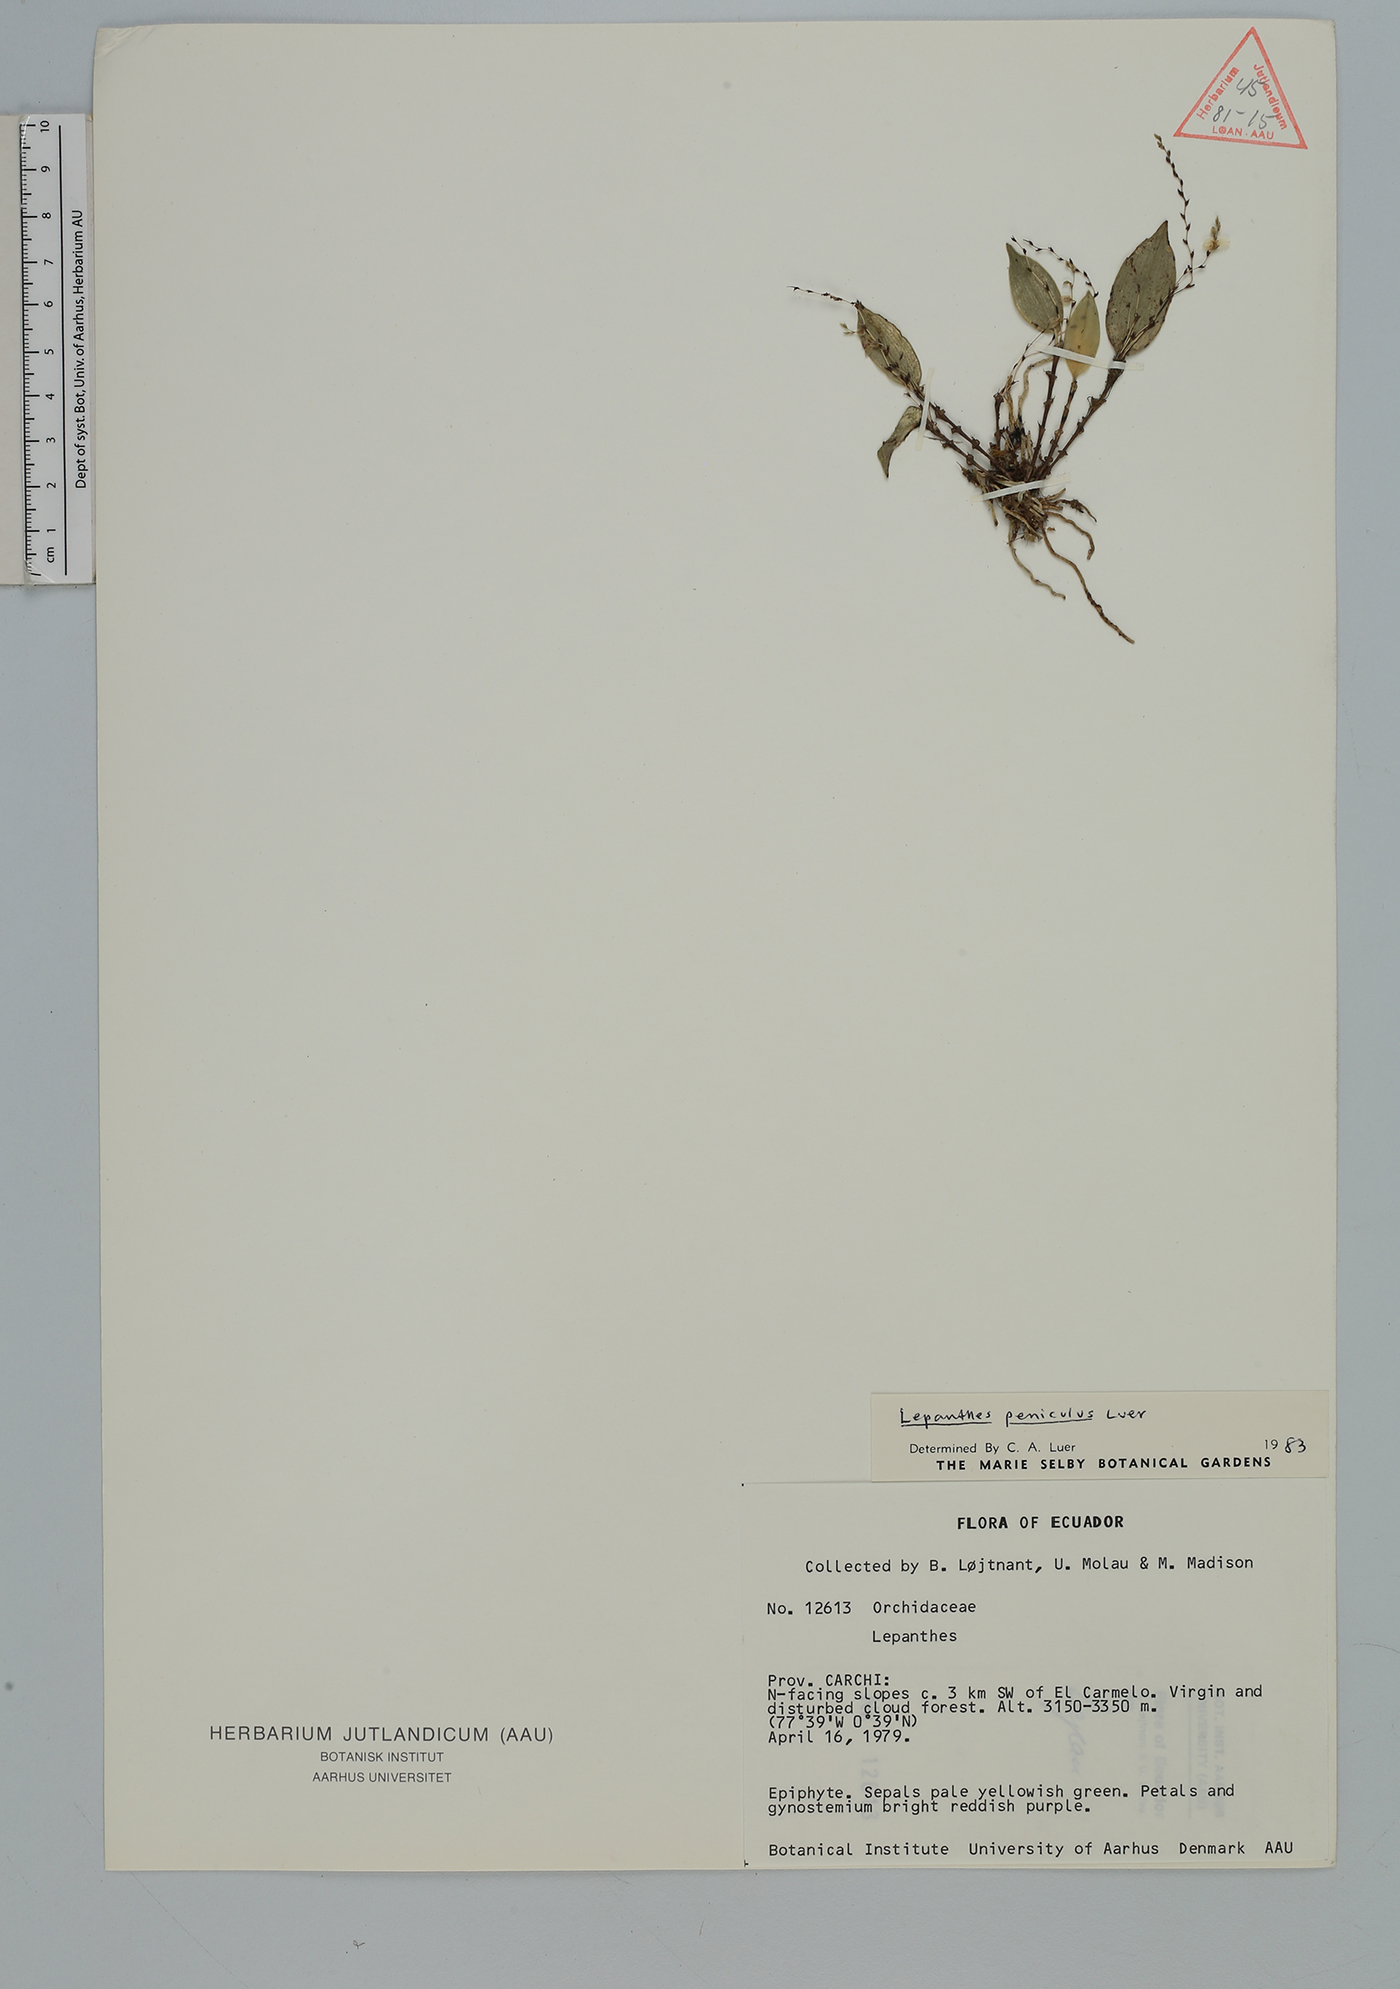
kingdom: Plantae
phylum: Tracheophyta
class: Liliopsida
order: Asparagales
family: Orchidaceae
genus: Lepanthes
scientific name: Lepanthes
